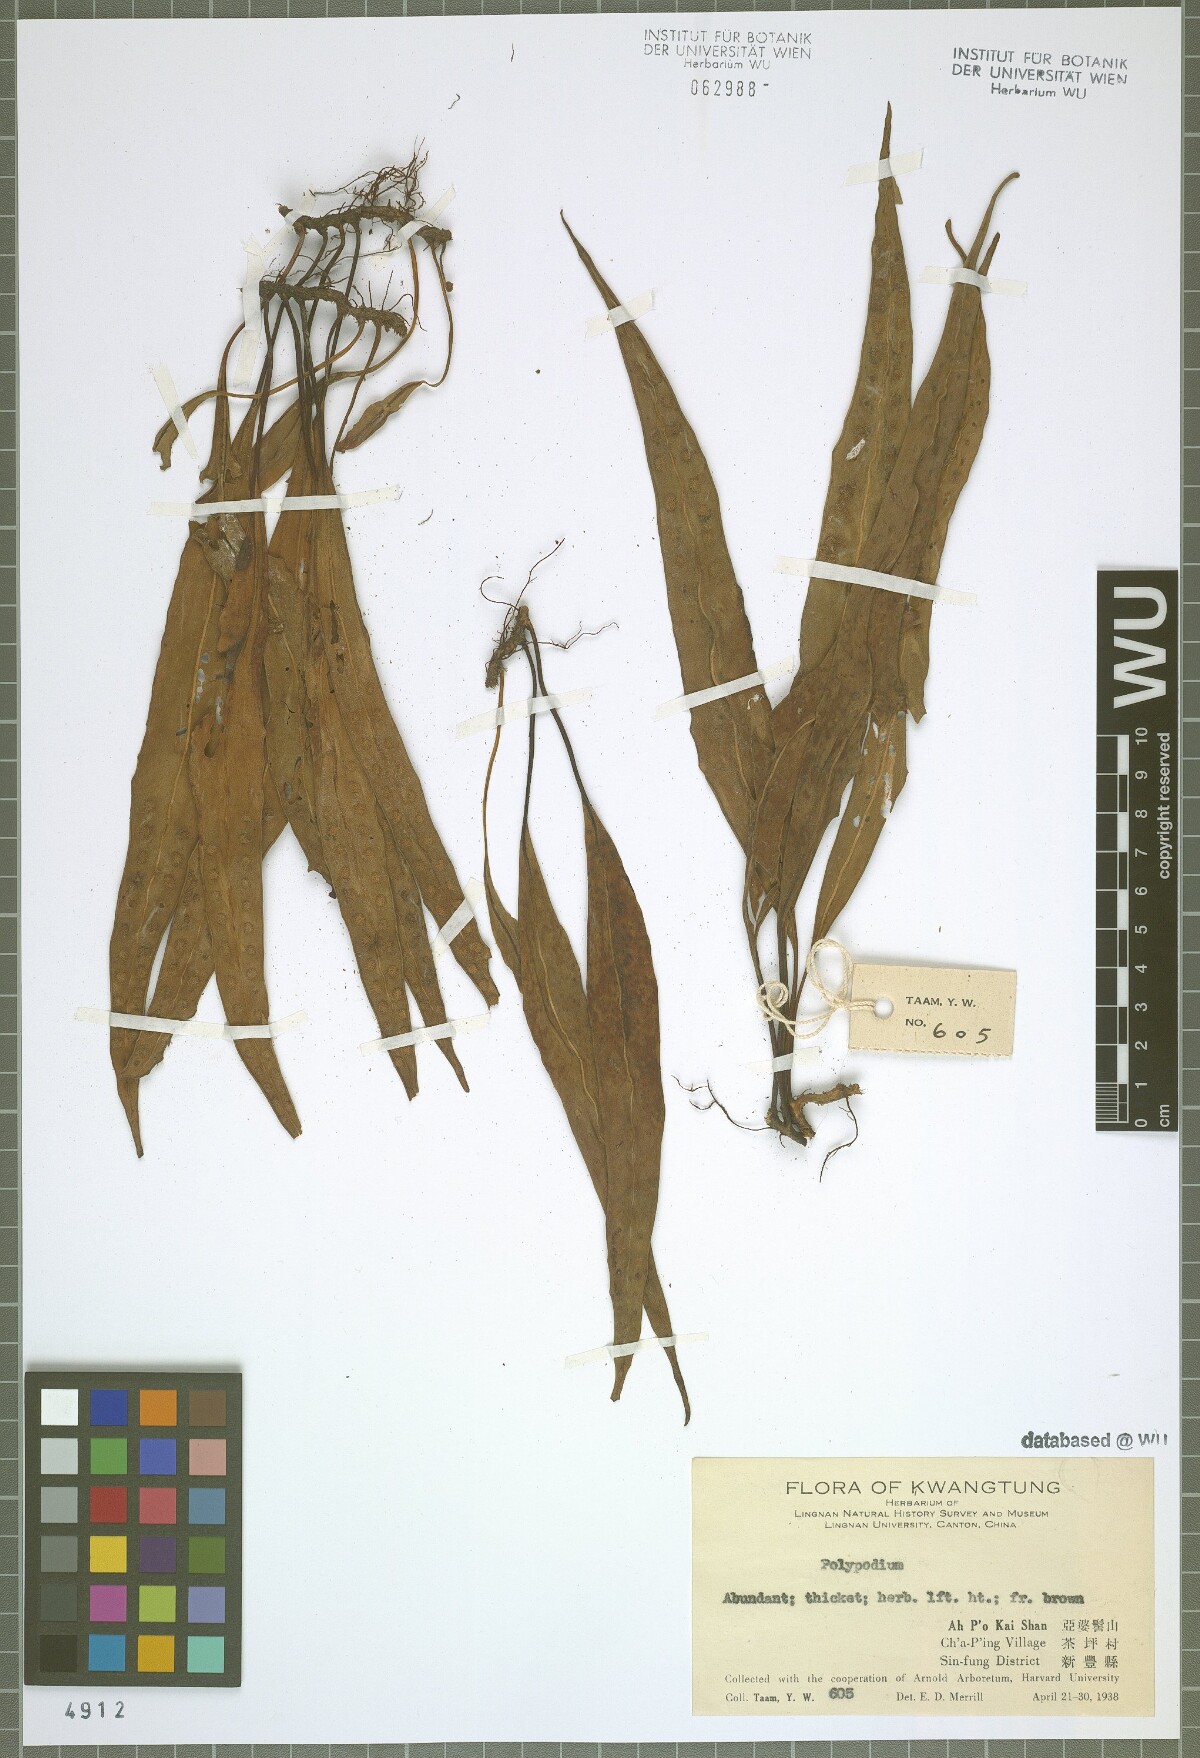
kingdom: Plantae
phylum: Tracheophyta
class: Polypodiopsida
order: Polypodiales
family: Polypodiaceae
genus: Polypodium
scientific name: Polypodium
